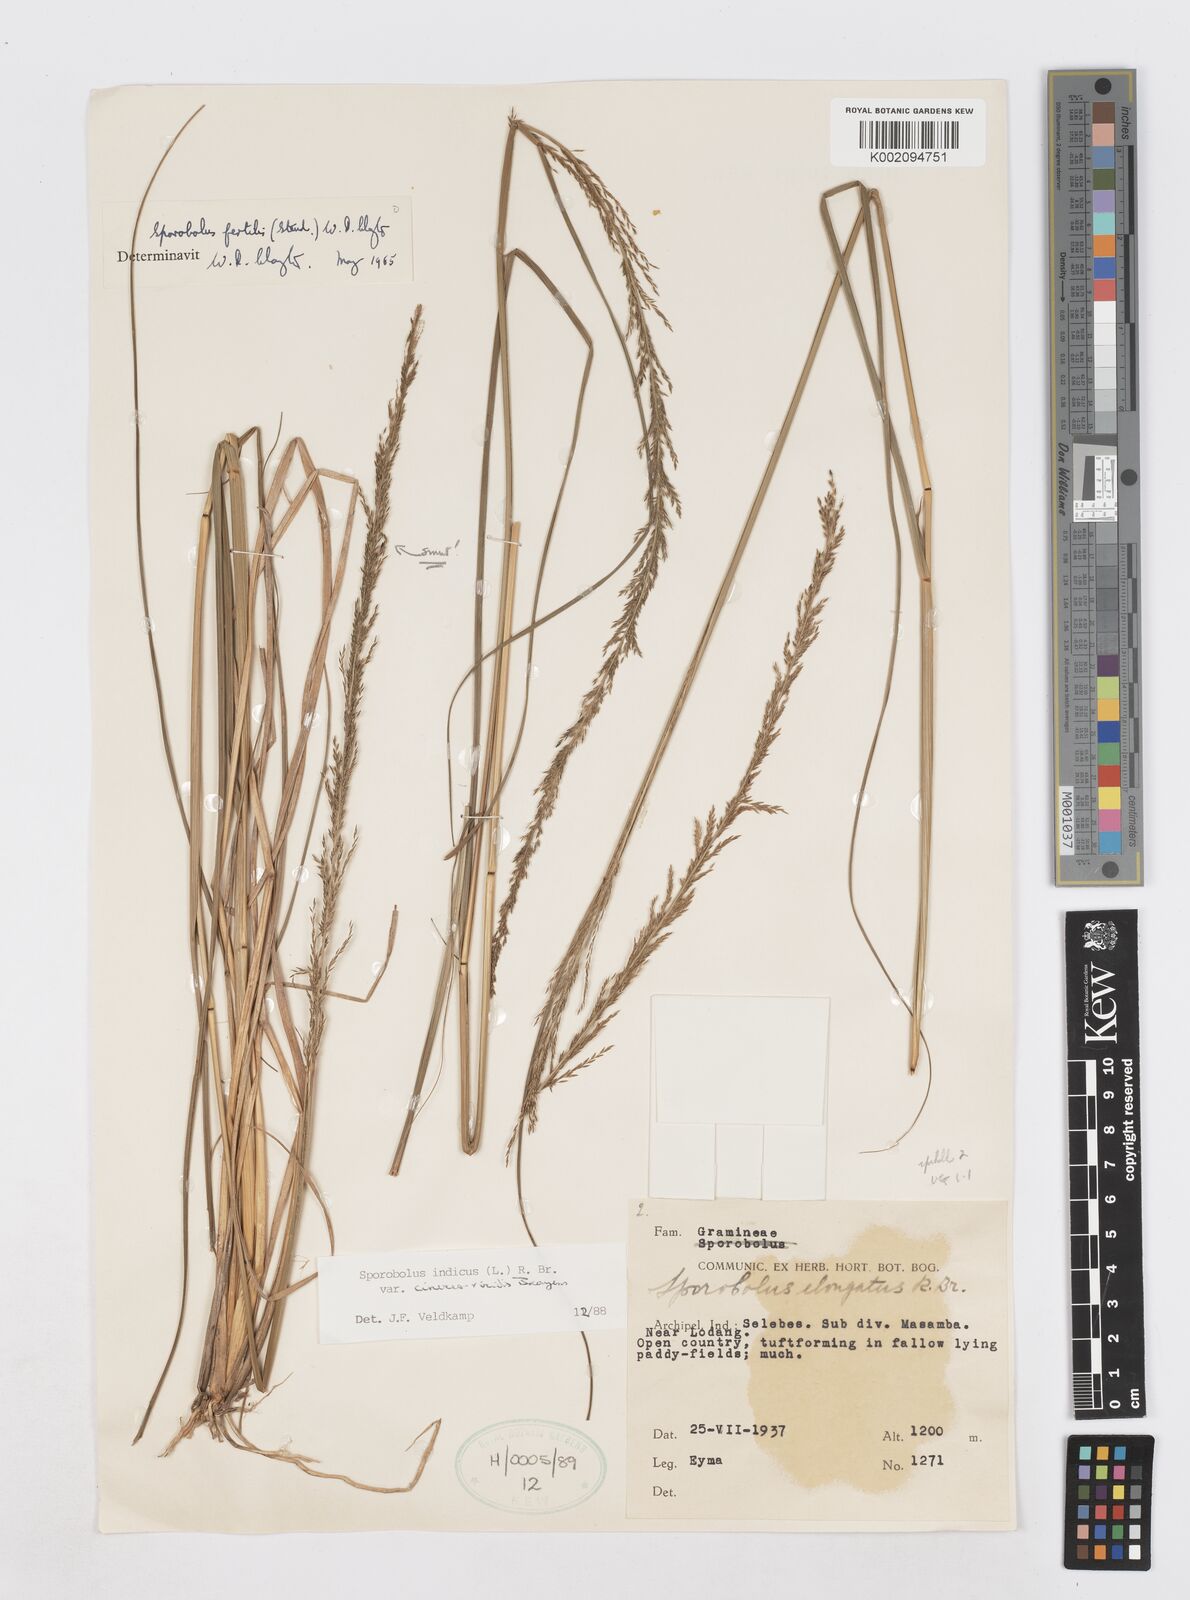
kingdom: Plantae
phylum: Tracheophyta
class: Liliopsida
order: Poales
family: Poaceae
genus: Sporobolus
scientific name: Sporobolus fertilis
